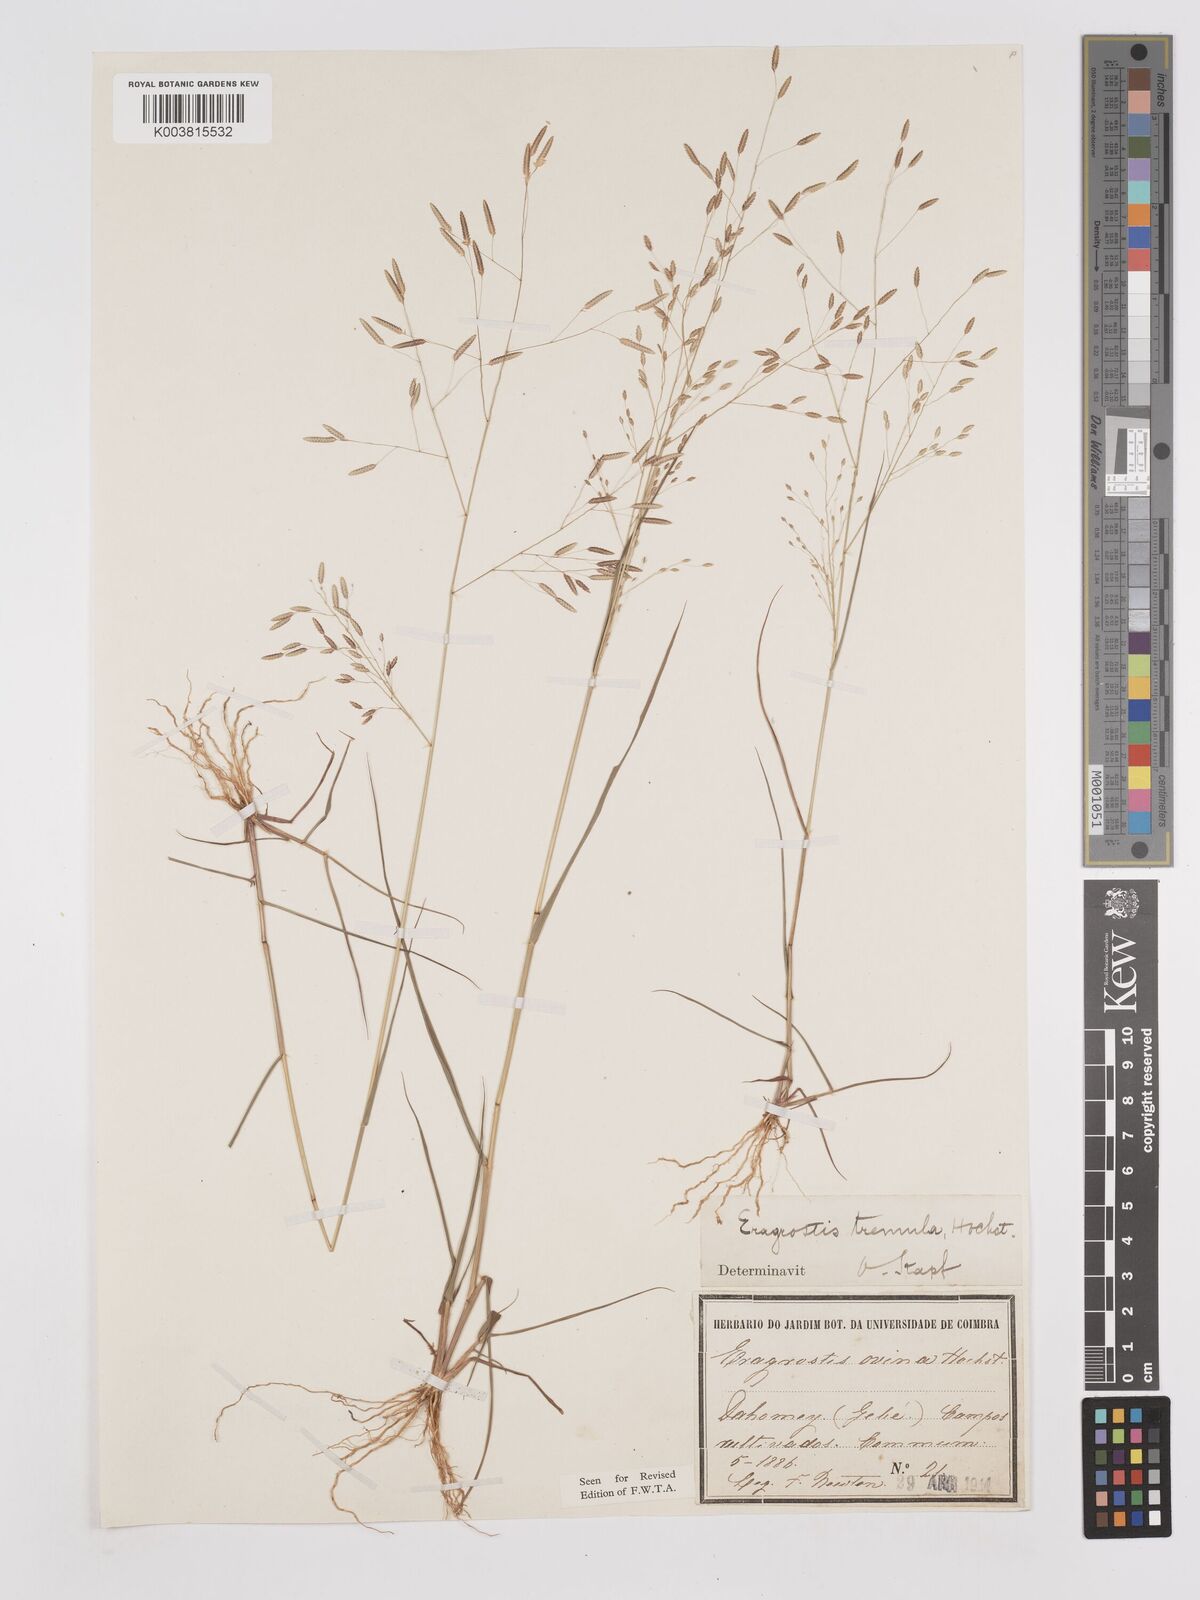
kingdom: Plantae
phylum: Tracheophyta
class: Liliopsida
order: Poales
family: Poaceae
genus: Eragrostis
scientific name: Eragrostis tremula
